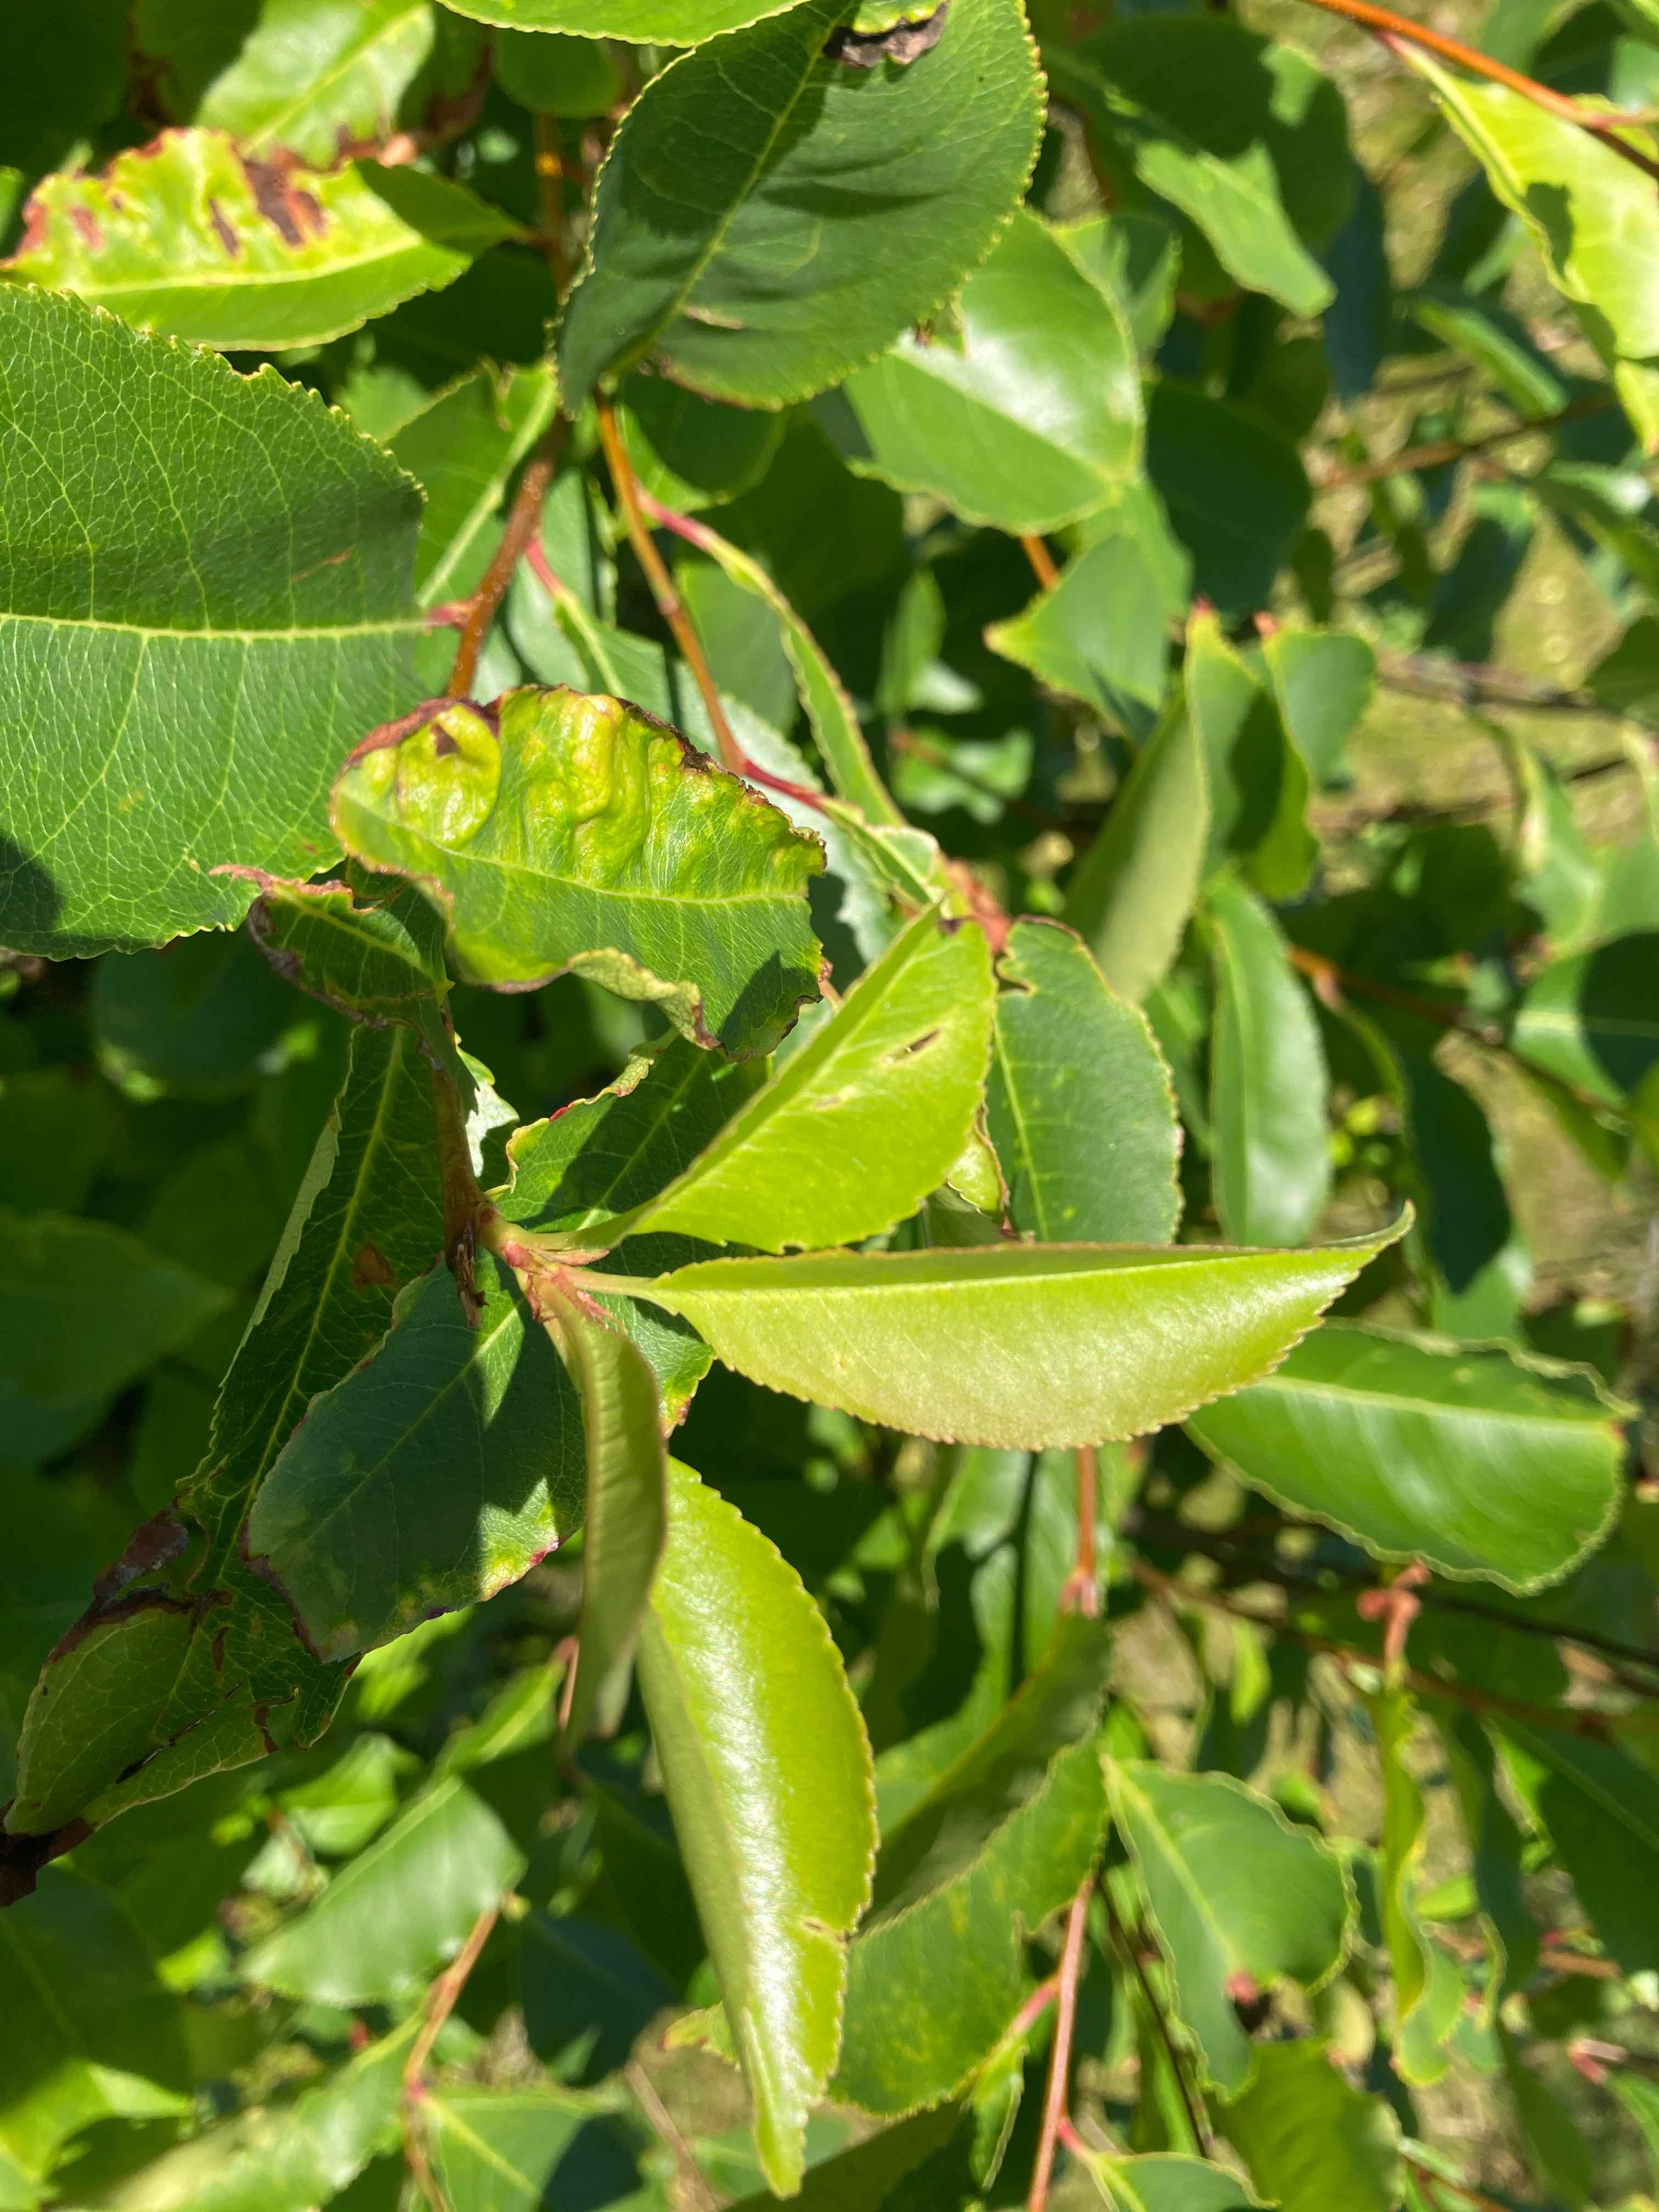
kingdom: Fungi
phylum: Ascomycota
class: Taphrinomycetes
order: Taphrinales
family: Taphrinaceae
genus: Taphrina
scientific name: Taphrina farlowii
